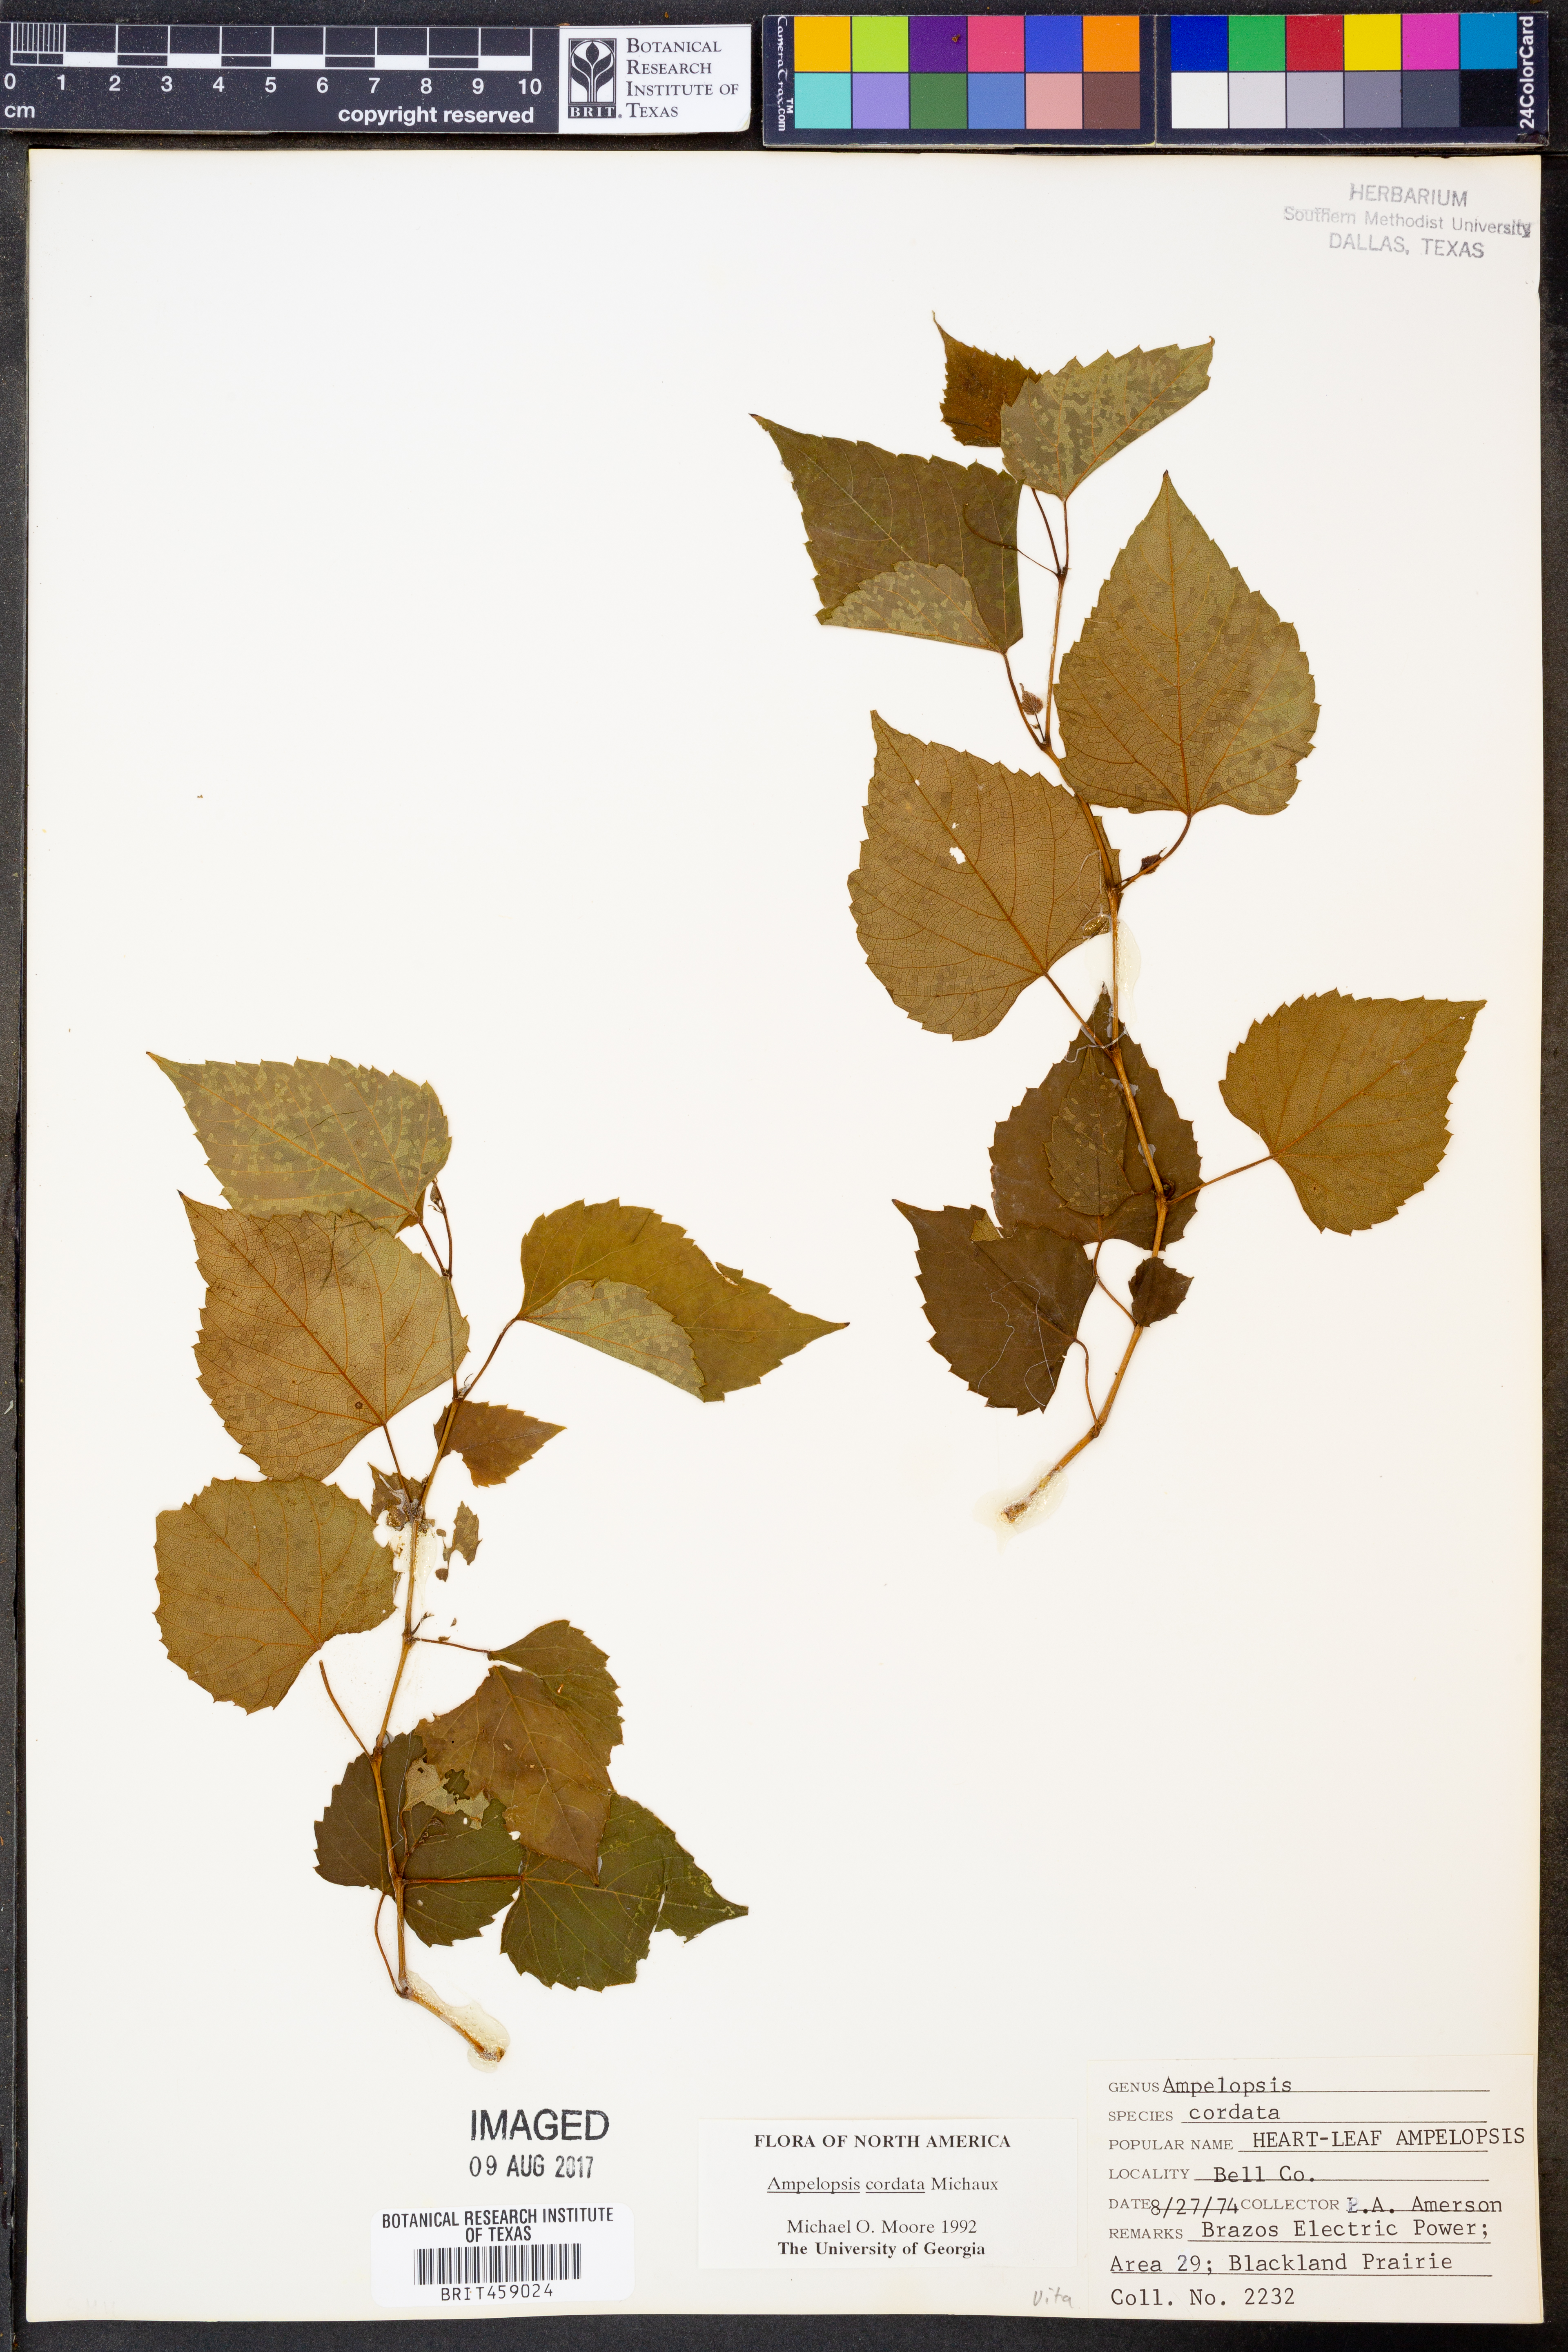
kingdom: Plantae
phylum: Tracheophyta
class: Magnoliopsida
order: Vitales
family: Vitaceae
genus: Ampelopsis
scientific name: Ampelopsis cordata
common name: Heart-leaf ampelopsis
